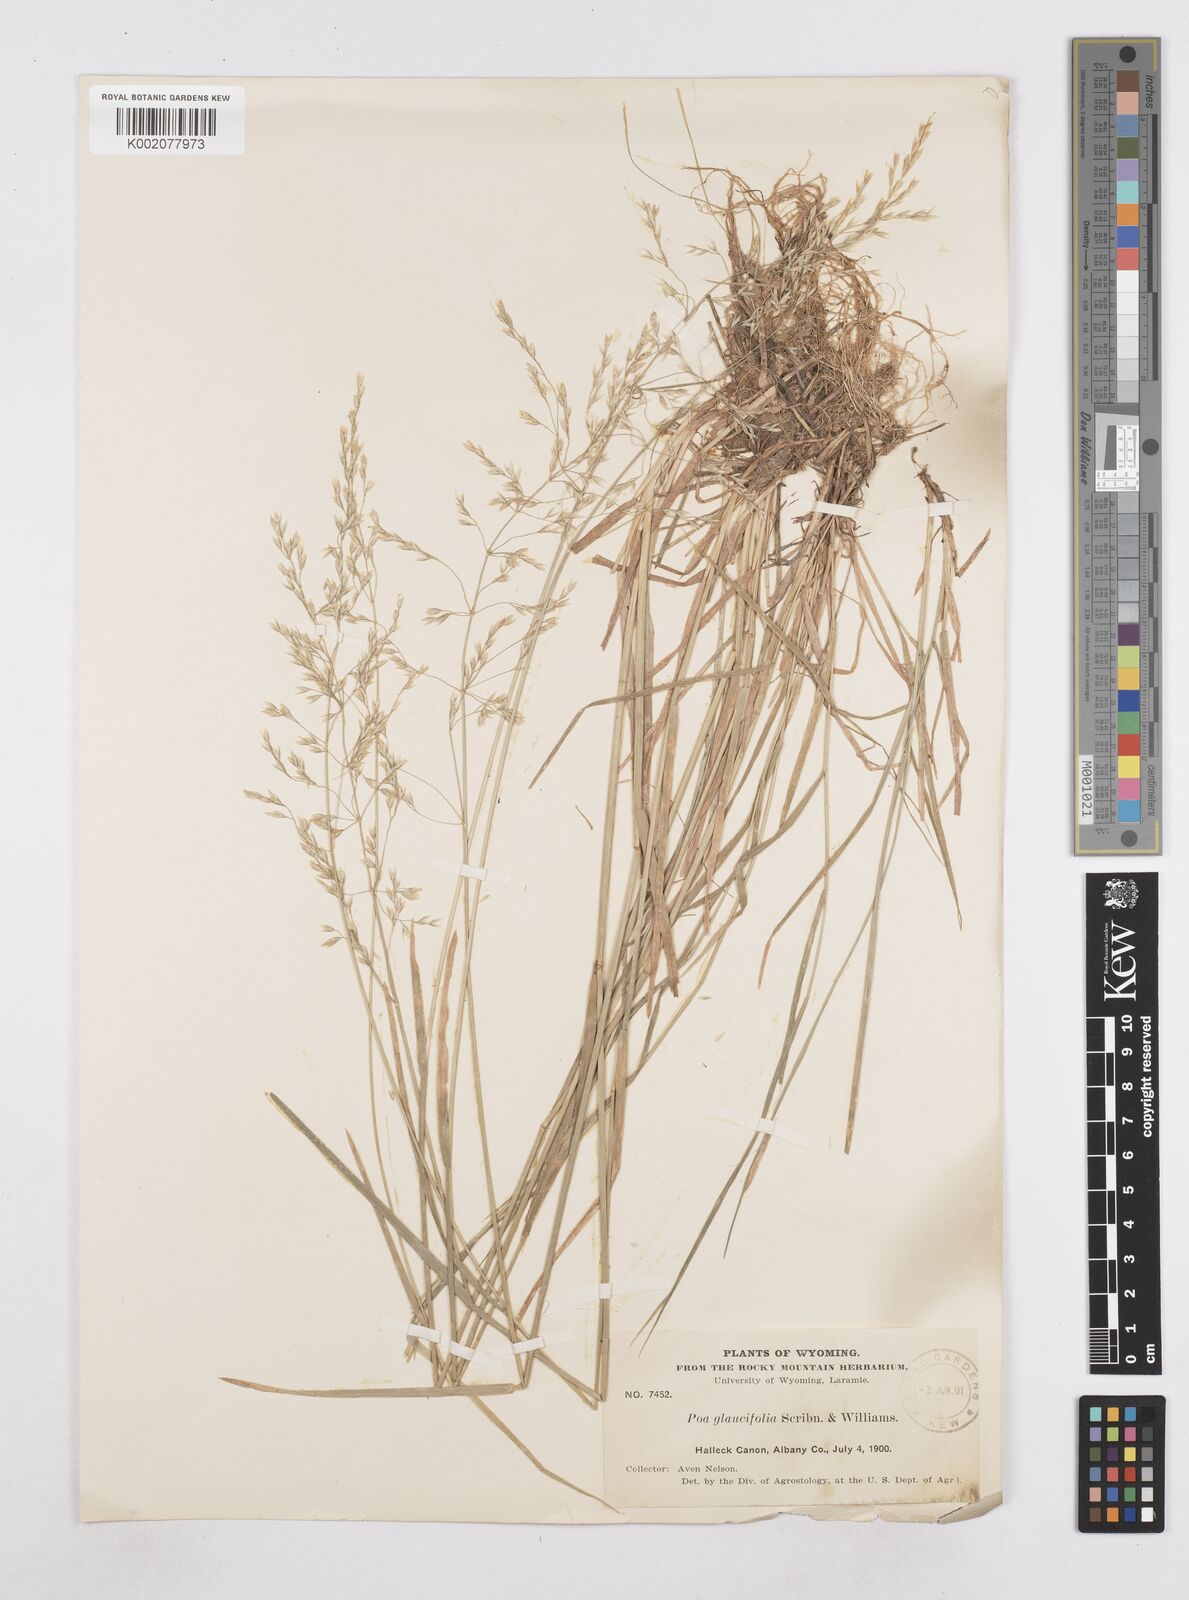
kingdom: Plantae
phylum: Tracheophyta
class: Liliopsida
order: Poales
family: Poaceae
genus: Poa
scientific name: Poa arida
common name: Plains bluegrass
